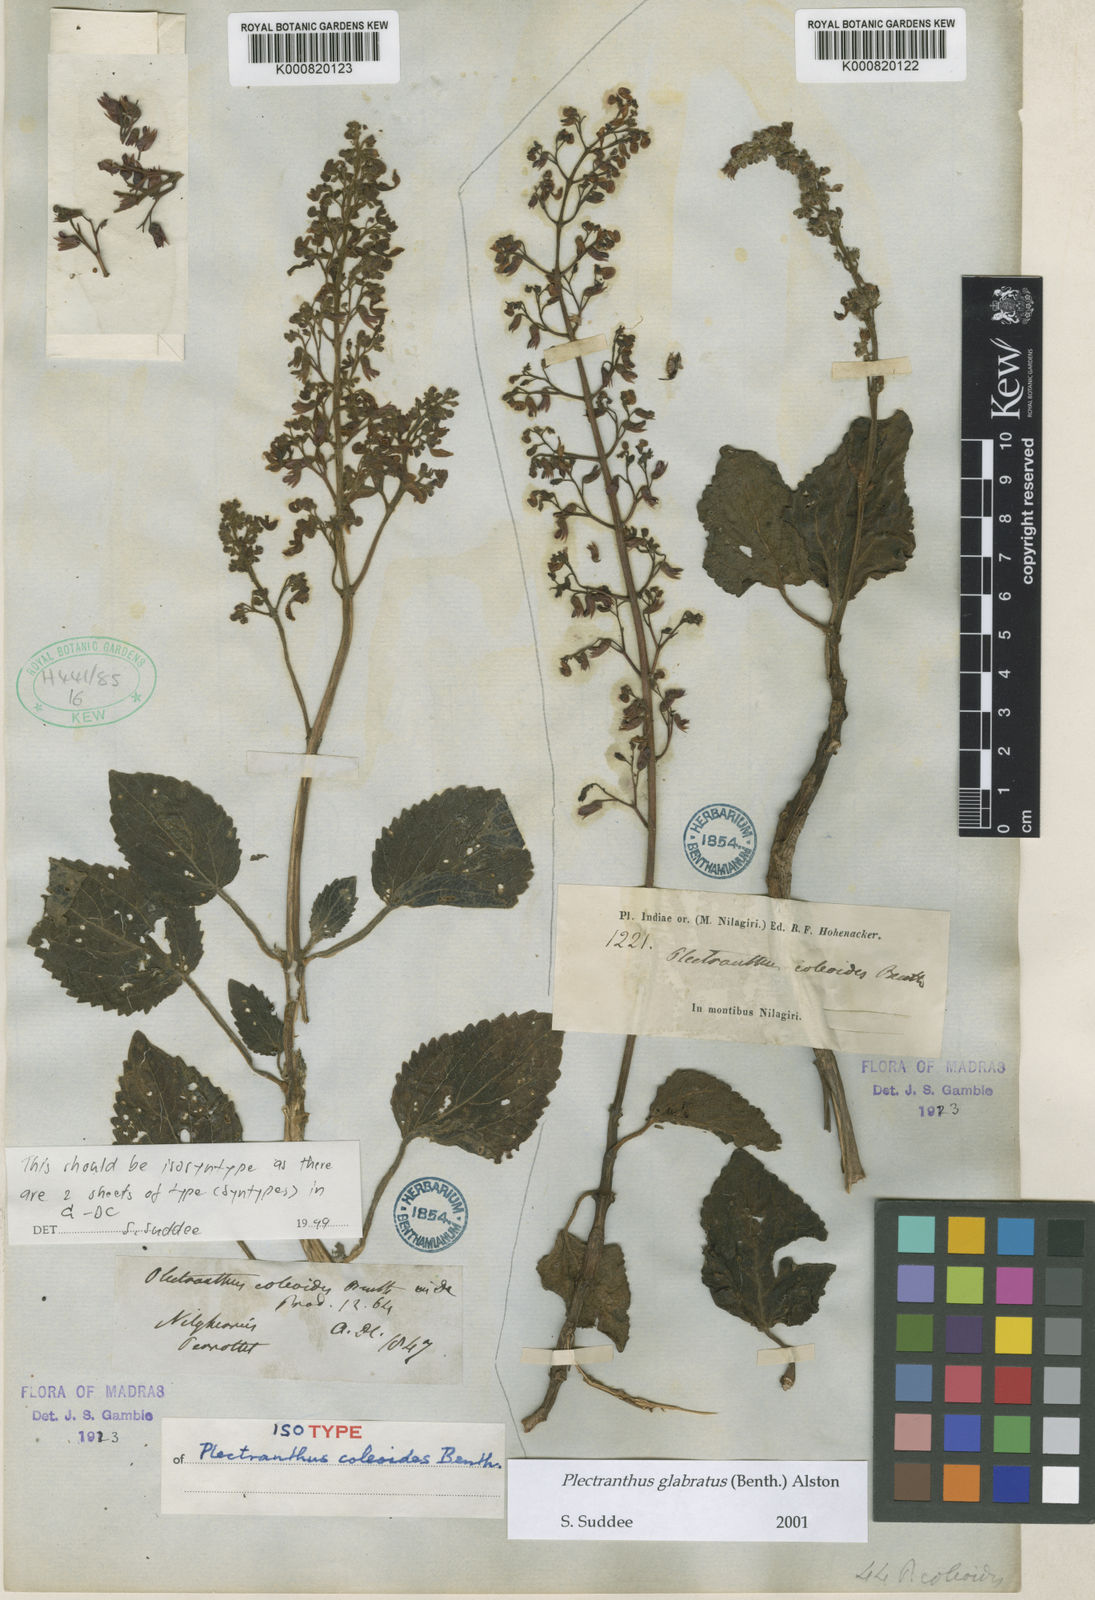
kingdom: Plantae
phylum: Tracheophyta
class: Magnoliopsida
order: Lamiales
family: Lamiaceae
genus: Coleus
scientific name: Coleus paniculatus
